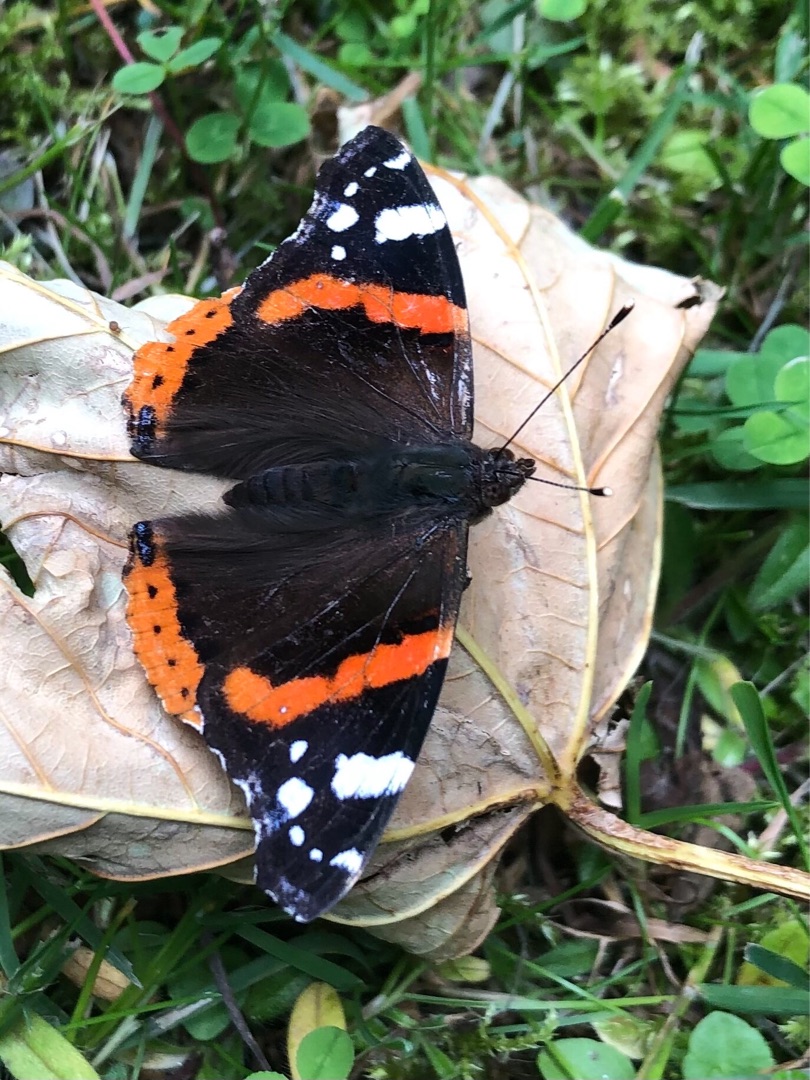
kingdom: Animalia
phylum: Arthropoda
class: Insecta
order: Lepidoptera
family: Nymphalidae
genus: Vanessa
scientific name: Vanessa atalanta
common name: Admiral
